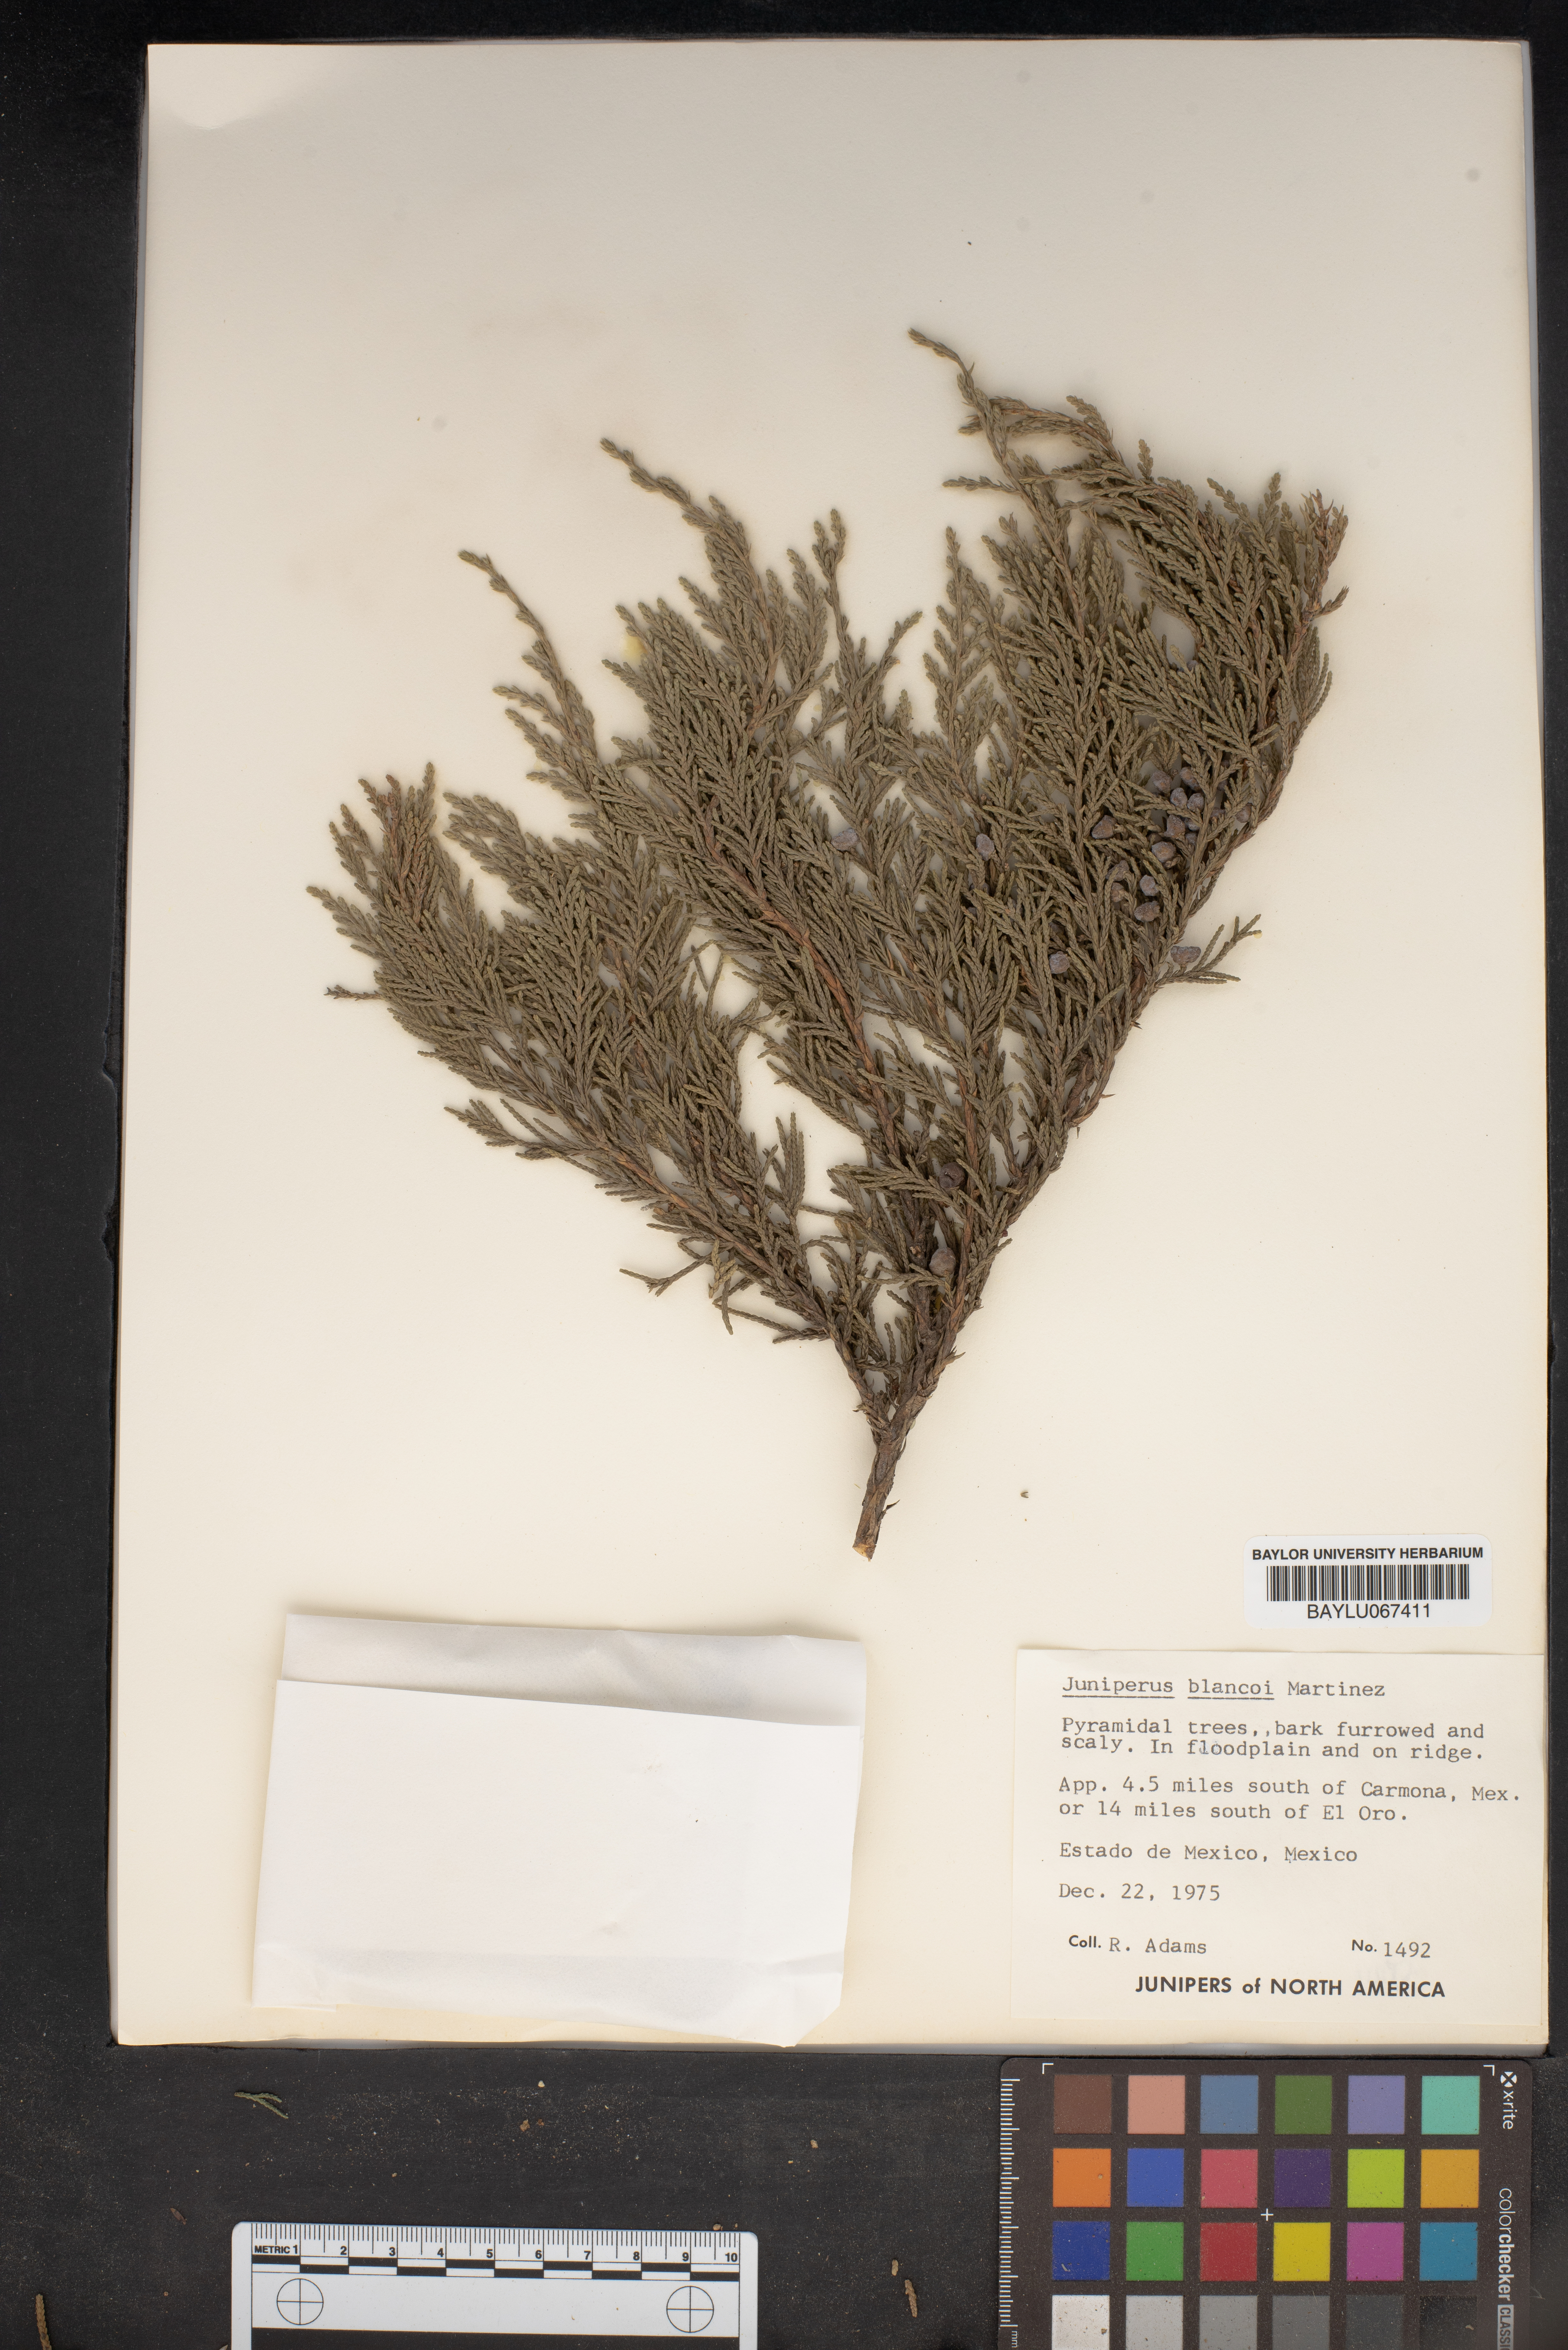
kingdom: Plantae
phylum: Tracheophyta
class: Pinopsida
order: Pinales
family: Cupressaceae
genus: Juniperus
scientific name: Juniperus blancoi
